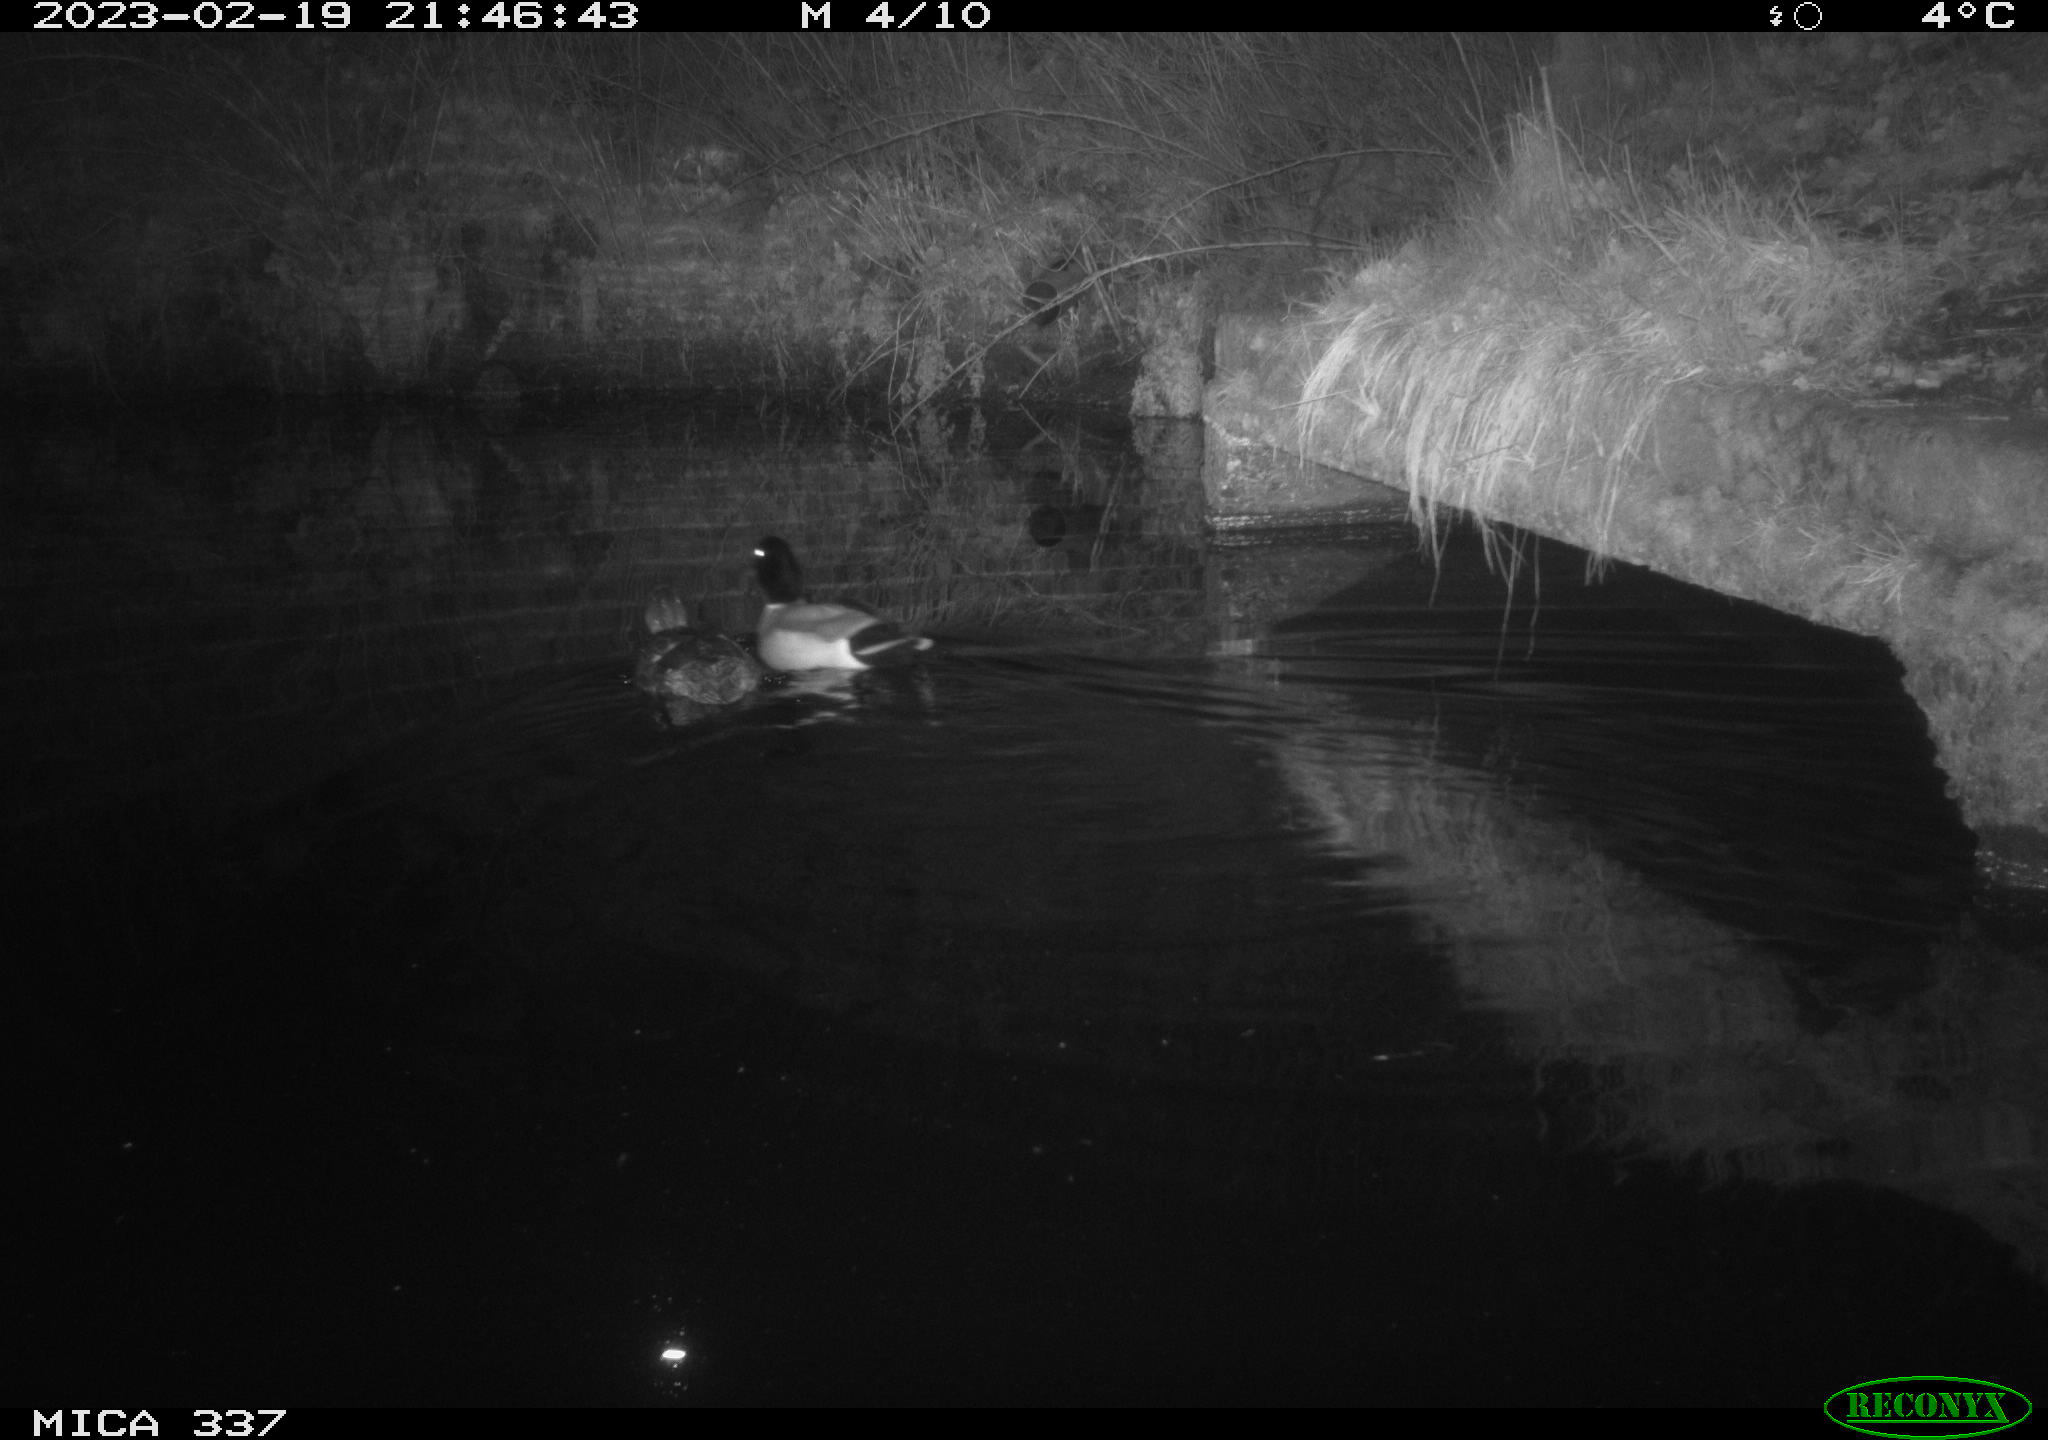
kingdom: Animalia
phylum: Chordata
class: Aves
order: Anseriformes
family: Anatidae
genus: Anas
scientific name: Anas
